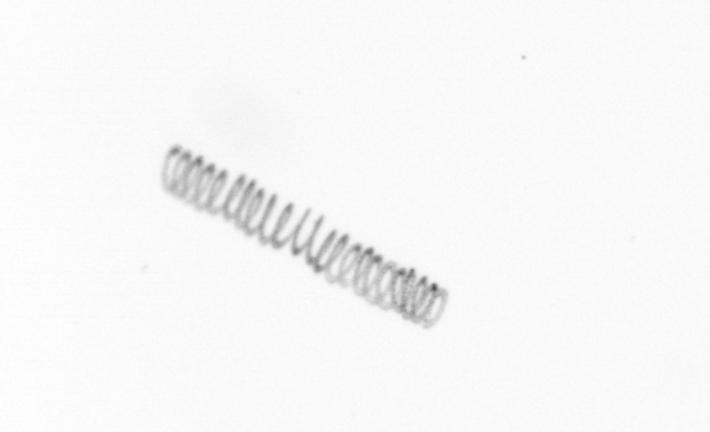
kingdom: Chromista
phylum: Ochrophyta
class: Bacillariophyceae
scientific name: Bacillariophyceae
